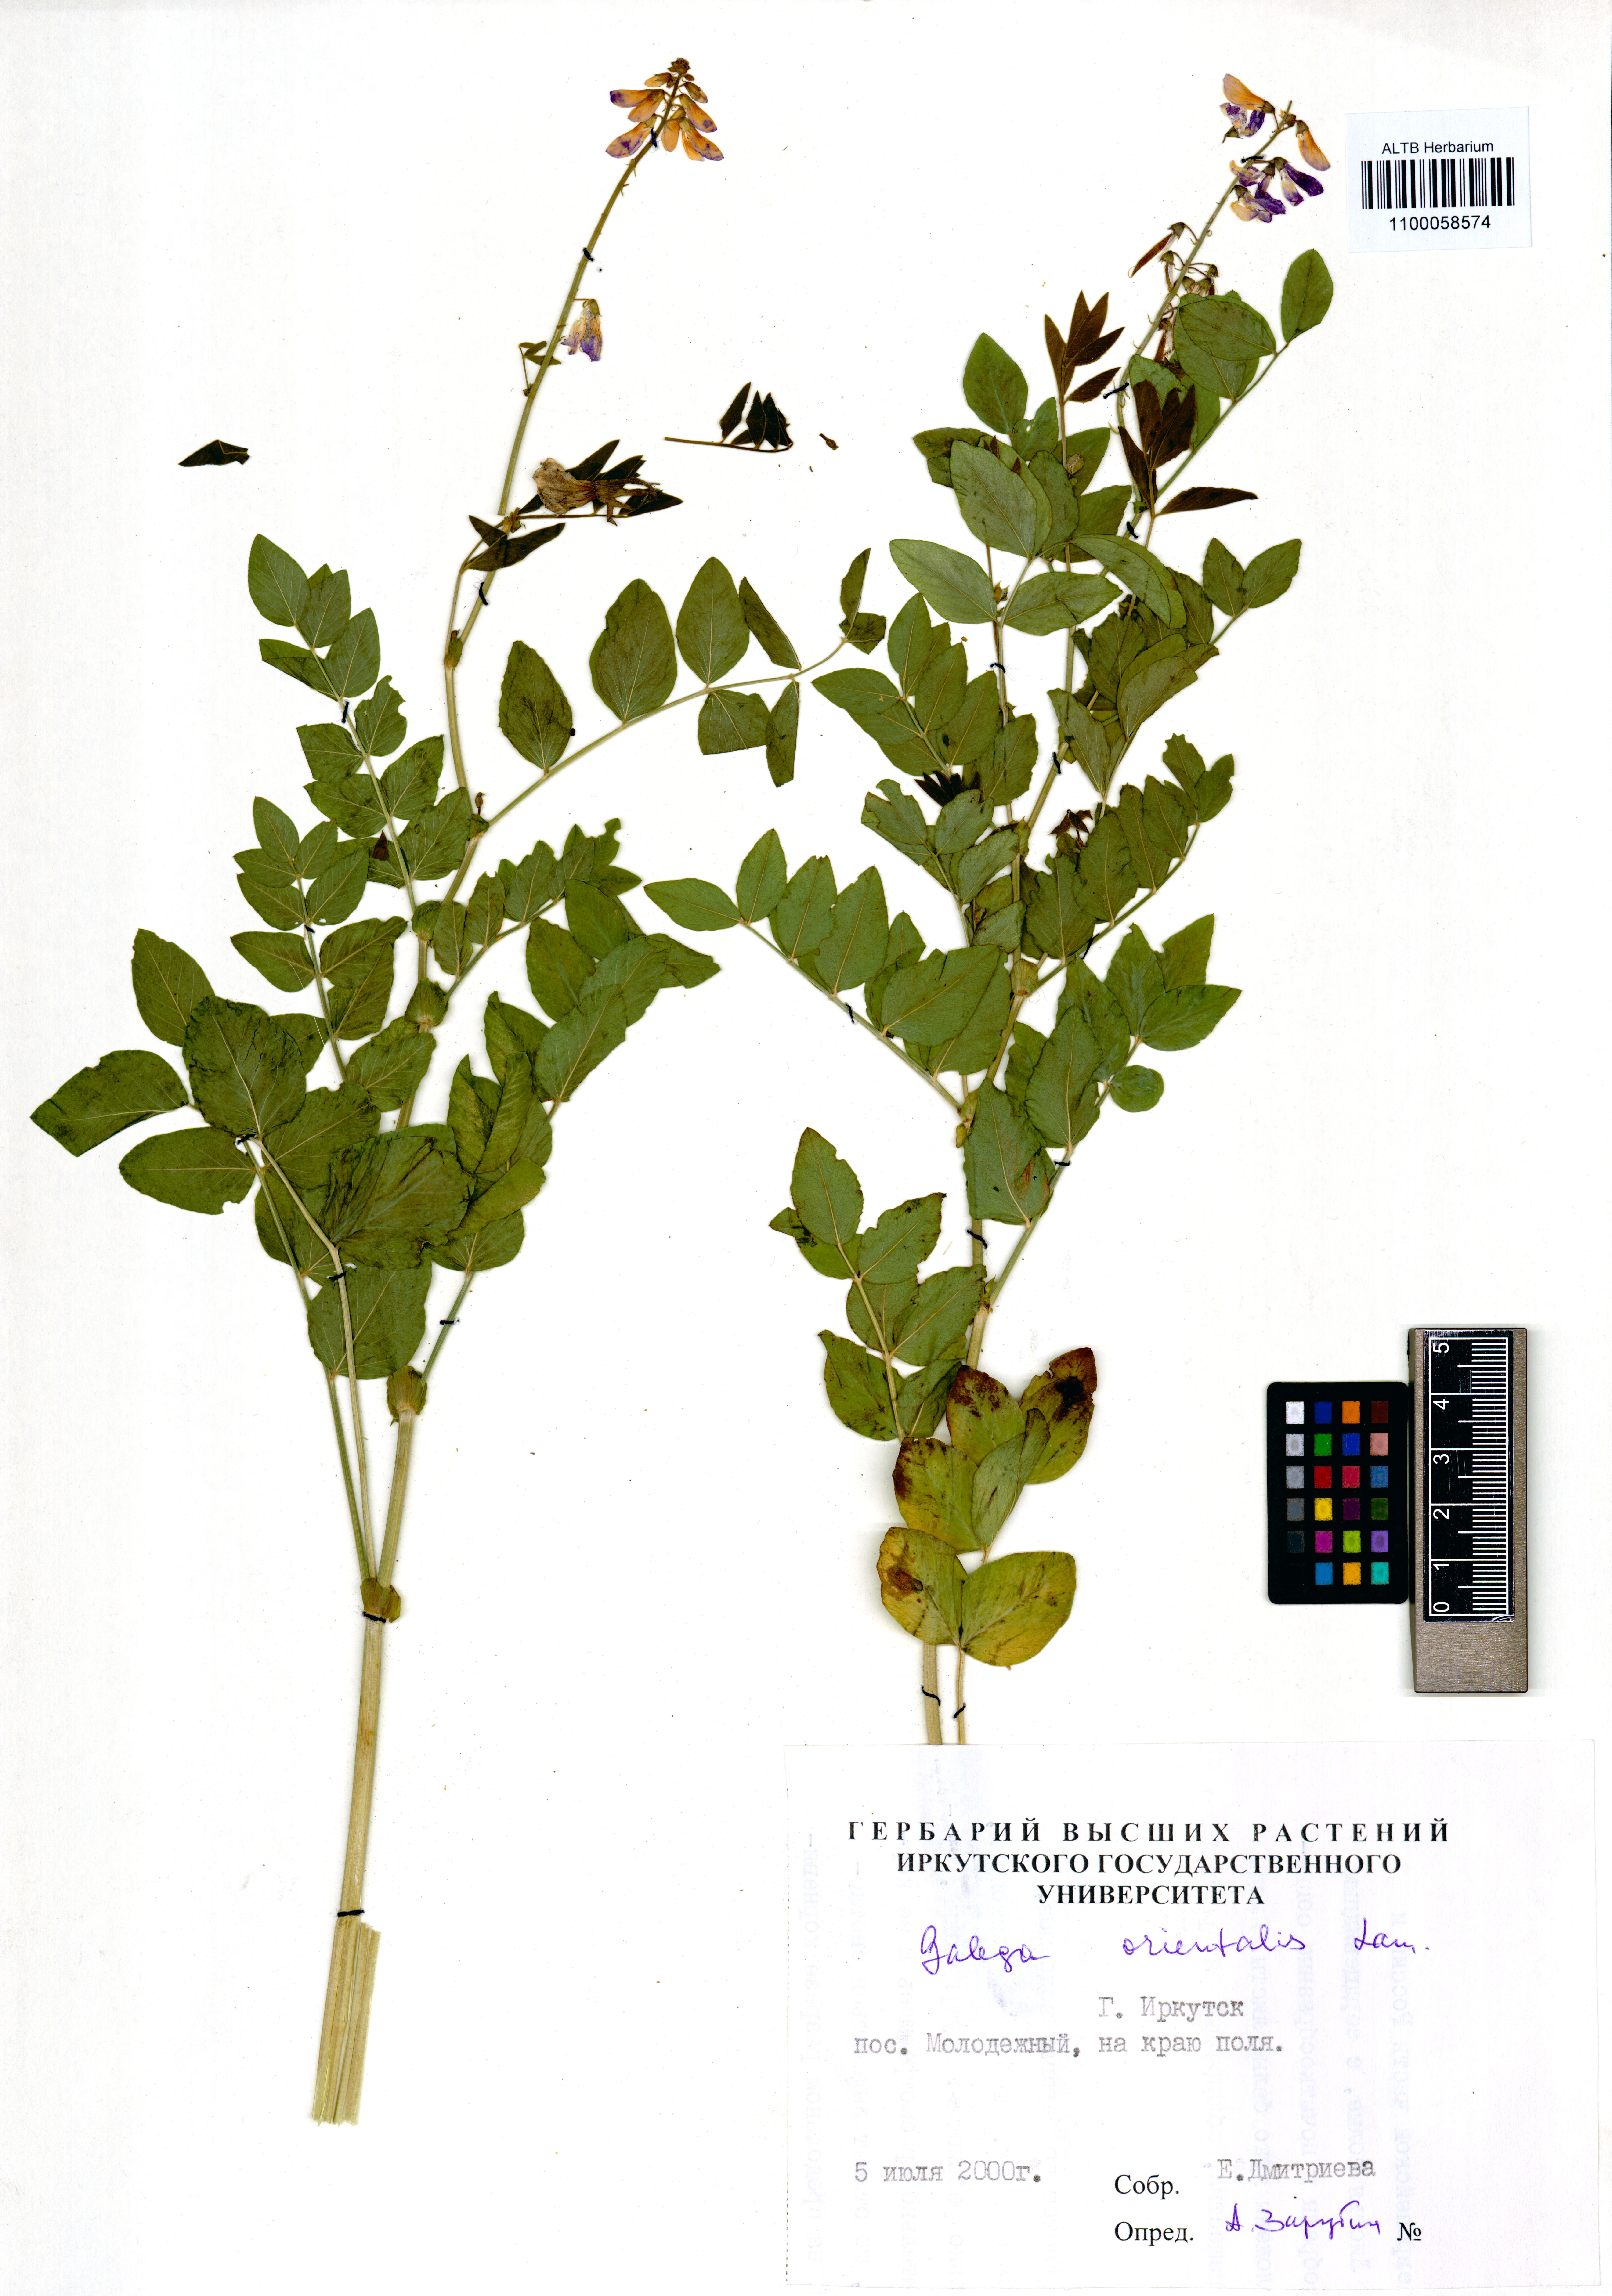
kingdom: Plantae
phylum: Tracheophyta
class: Magnoliopsida
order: Fabales
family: Fabaceae
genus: Galega
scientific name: Galega orientalis
